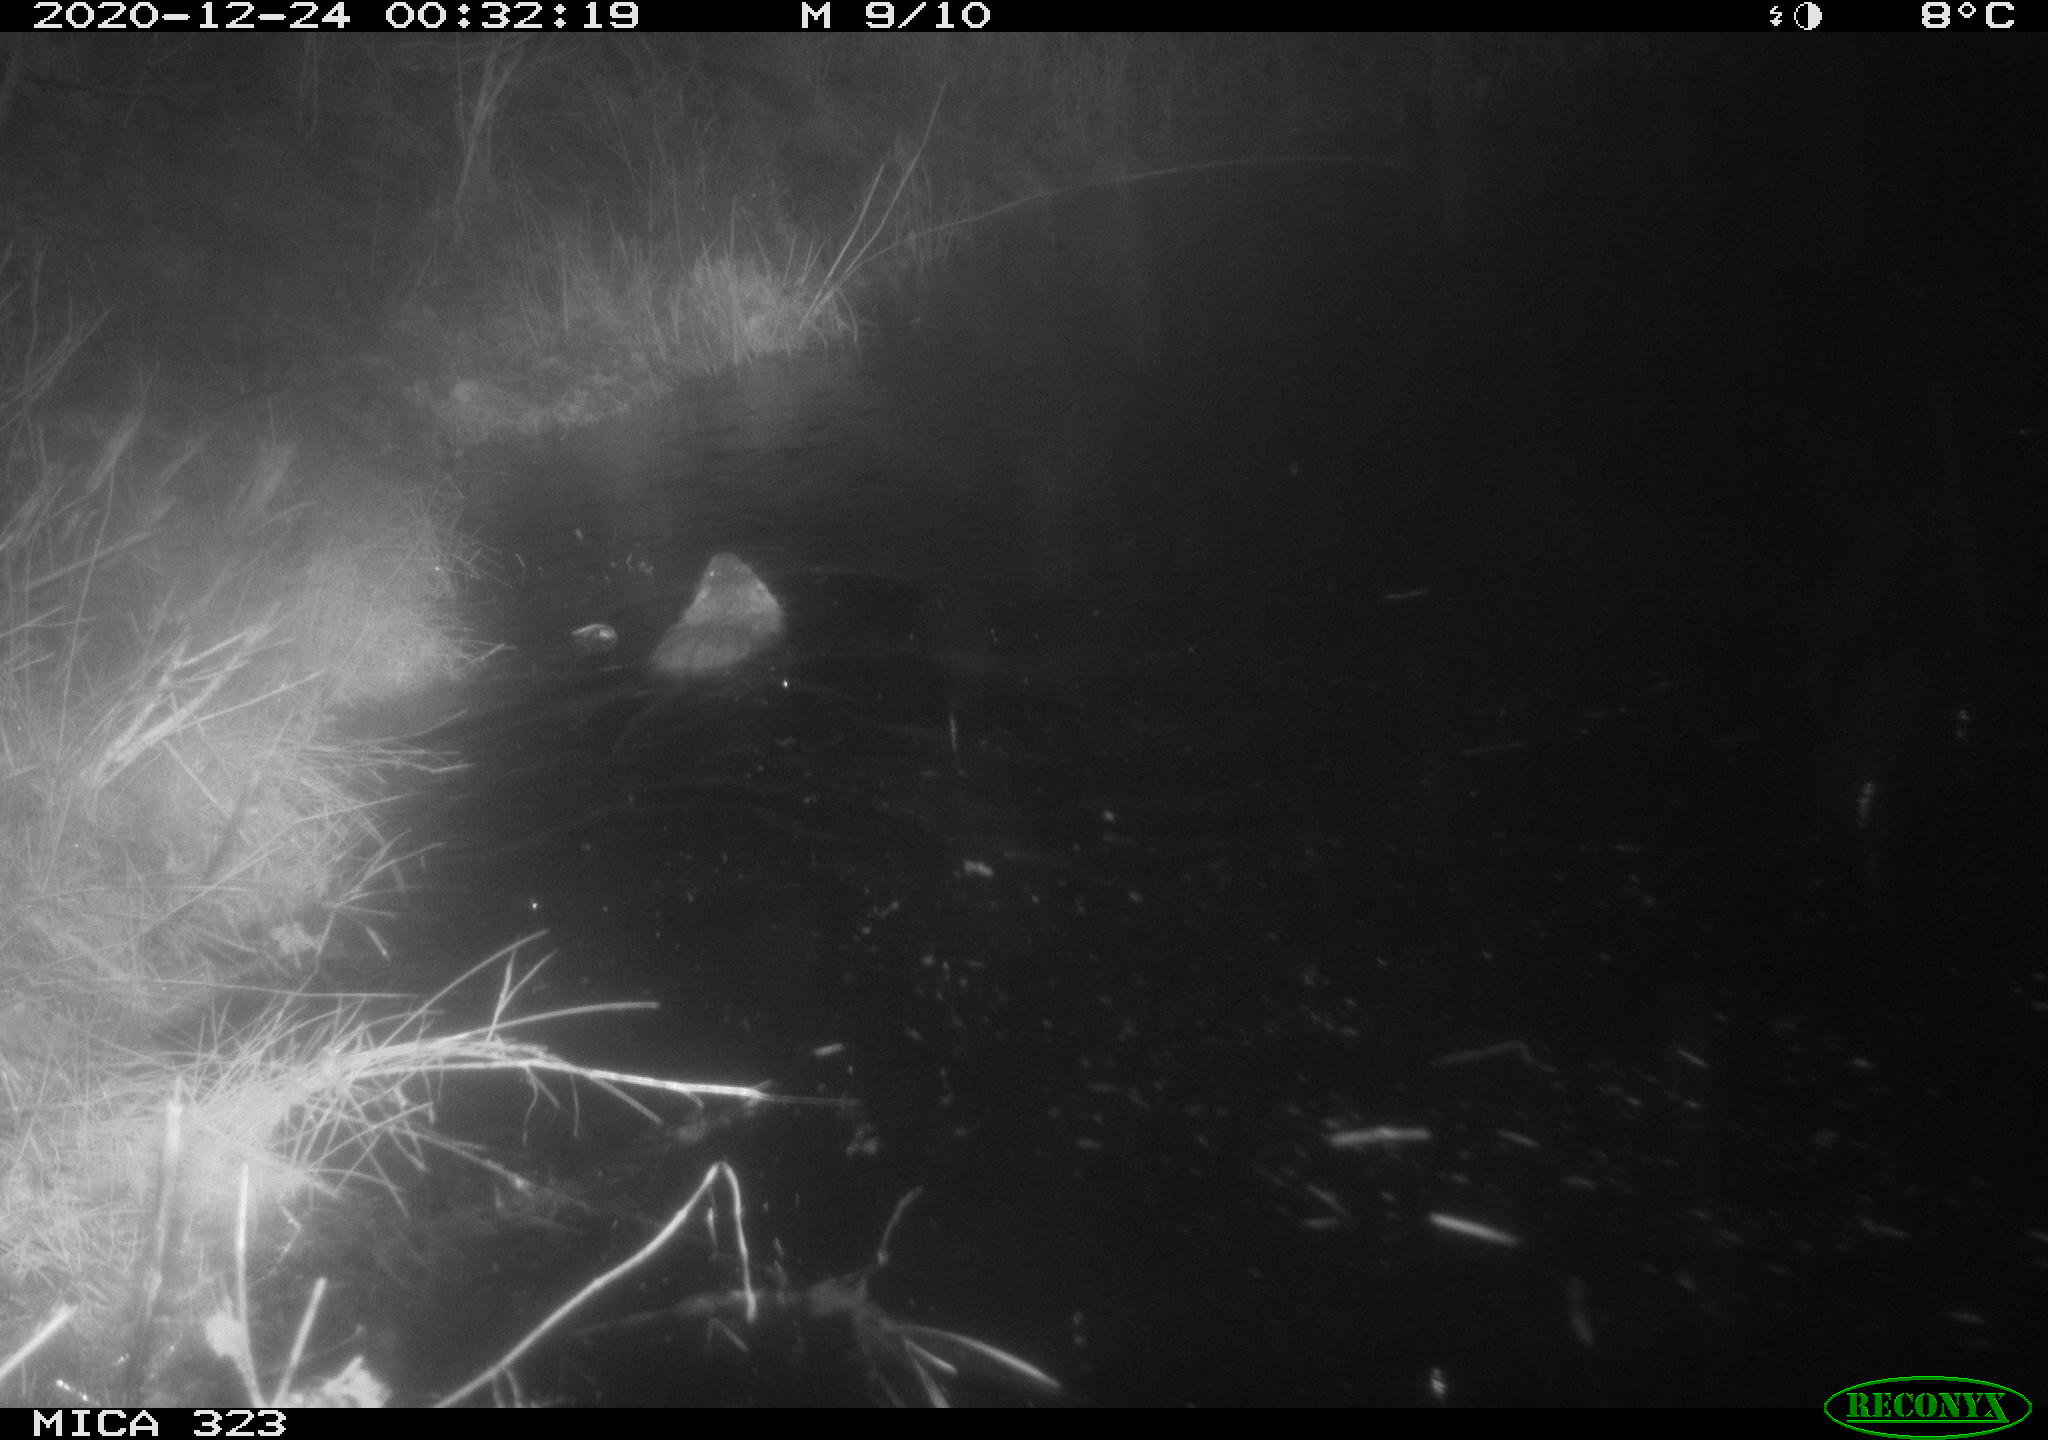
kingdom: Animalia
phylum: Chordata
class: Mammalia
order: Rodentia
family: Myocastoridae
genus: Myocastor
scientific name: Myocastor coypus
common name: Coypu
